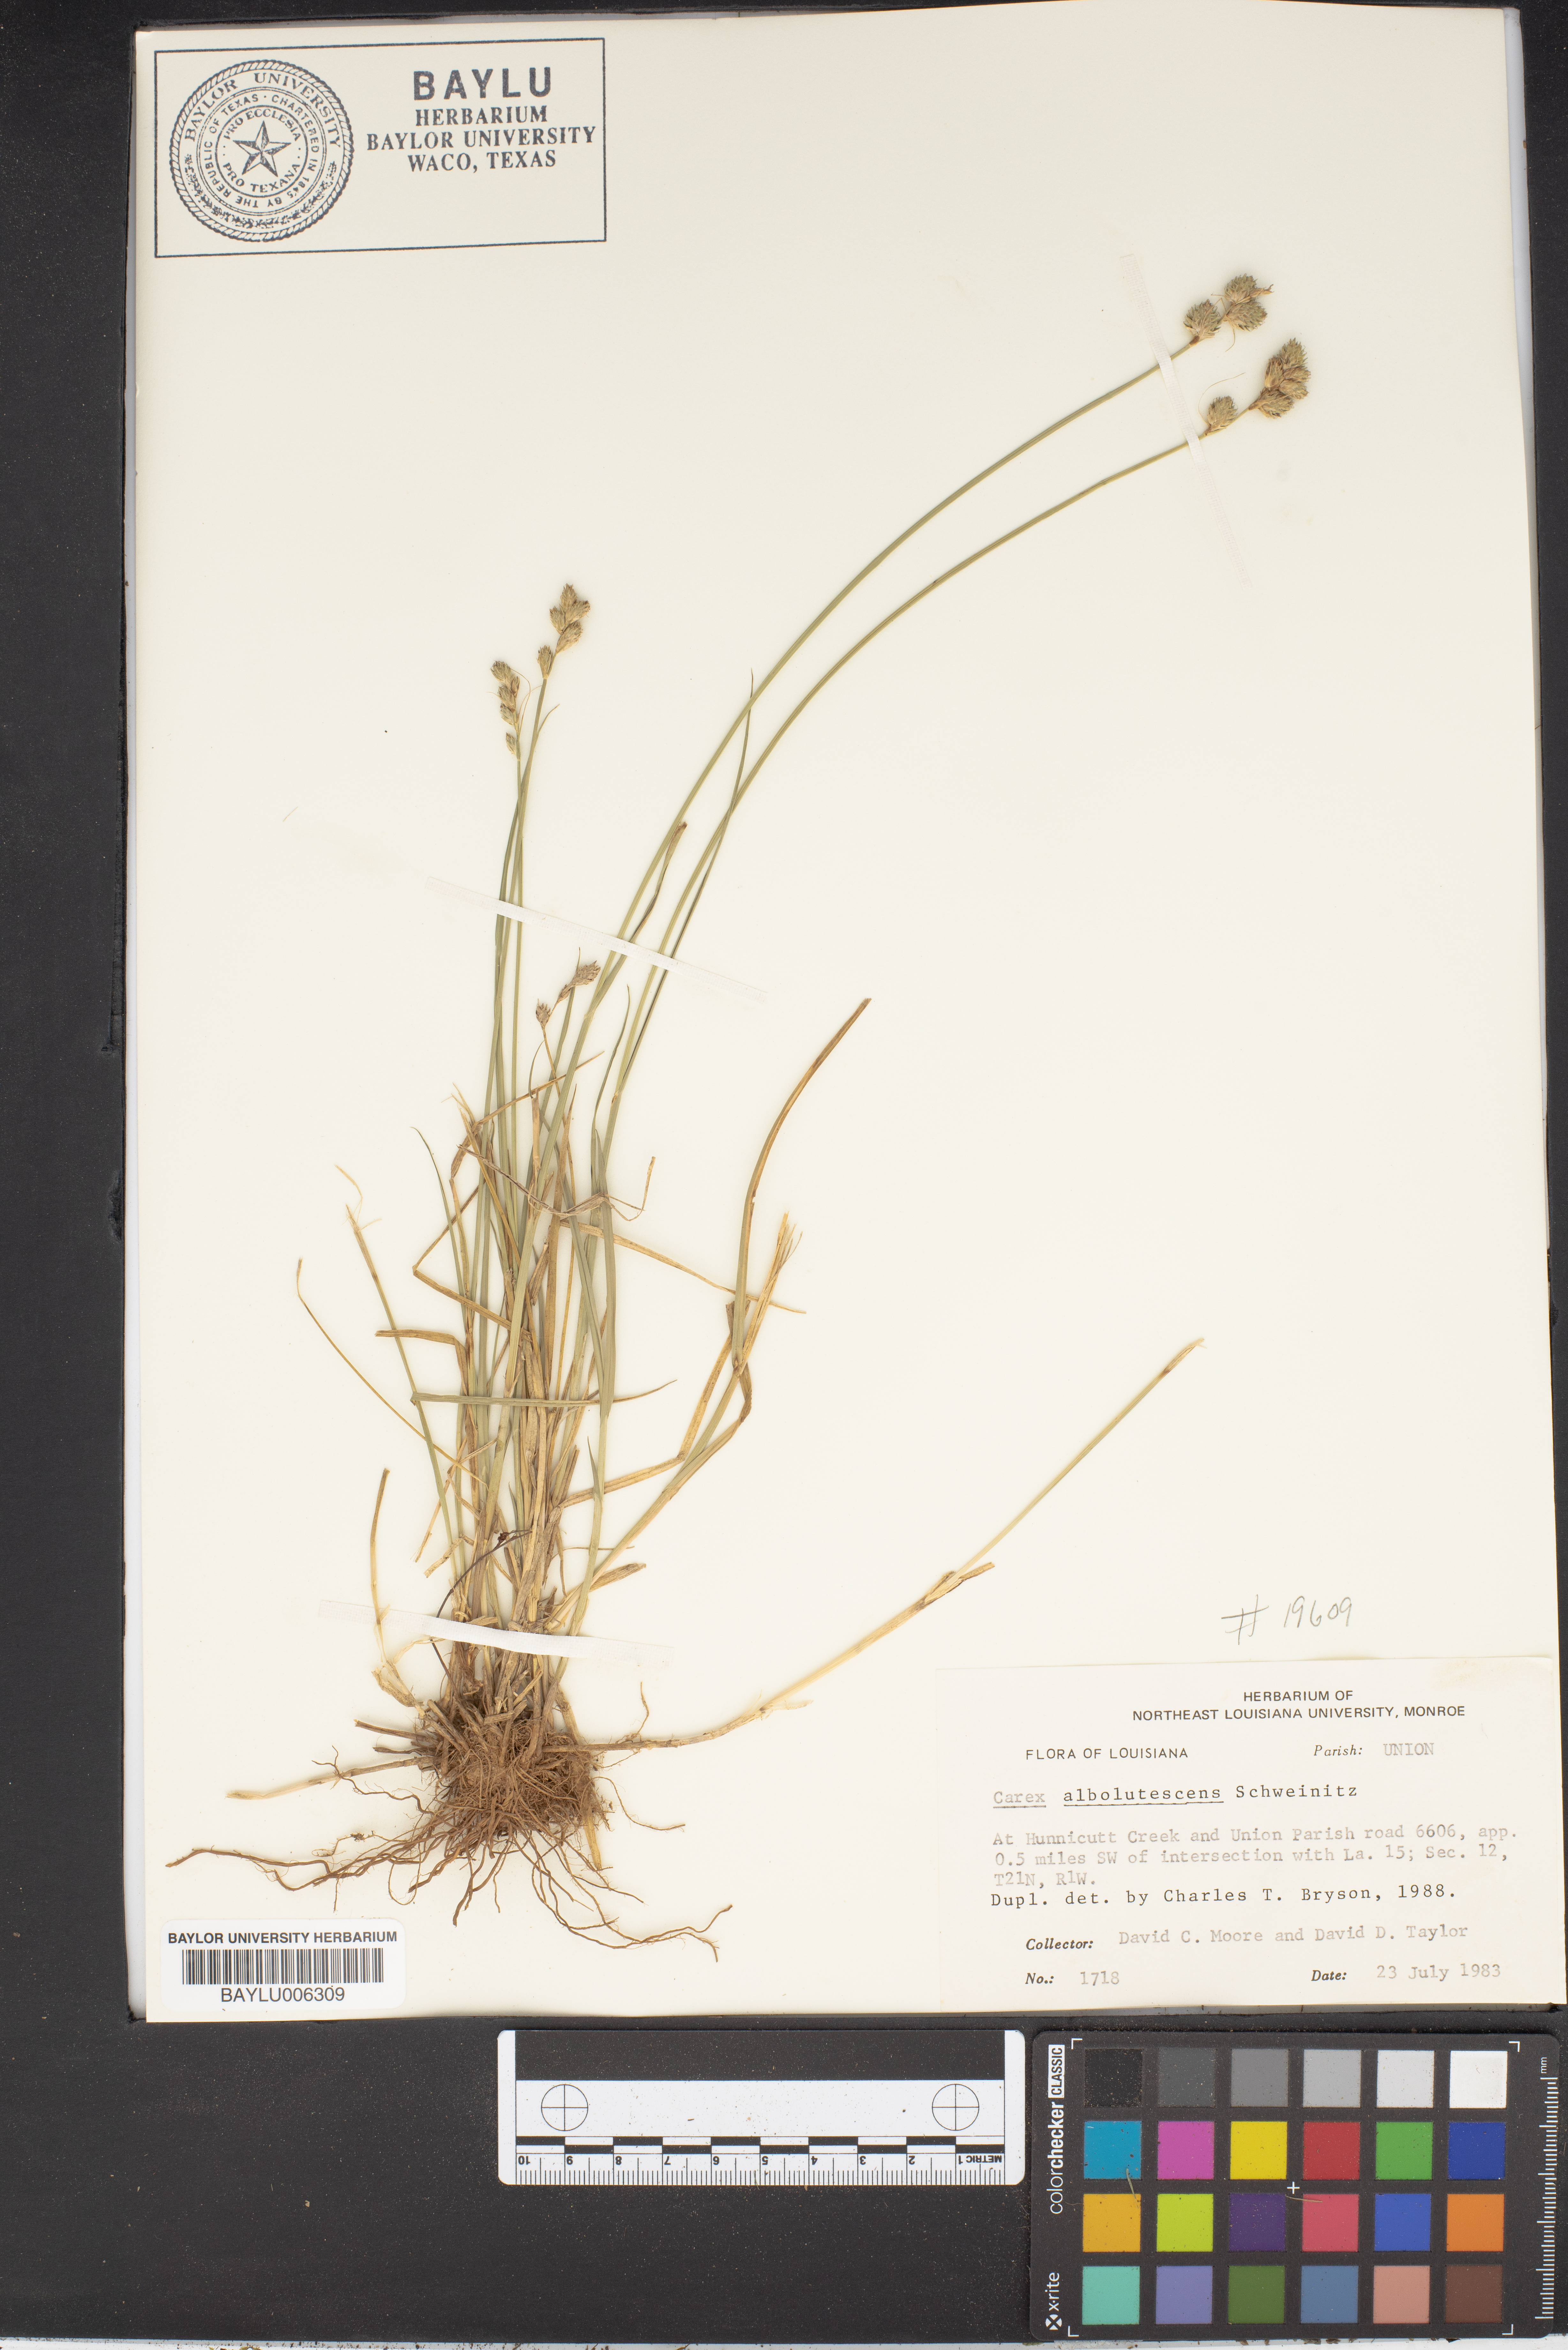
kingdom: Plantae
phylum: Tracheophyta
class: Liliopsida
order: Poales
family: Cyperaceae
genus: Carex
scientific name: Carex albolutescens
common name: Freenish white sedge
